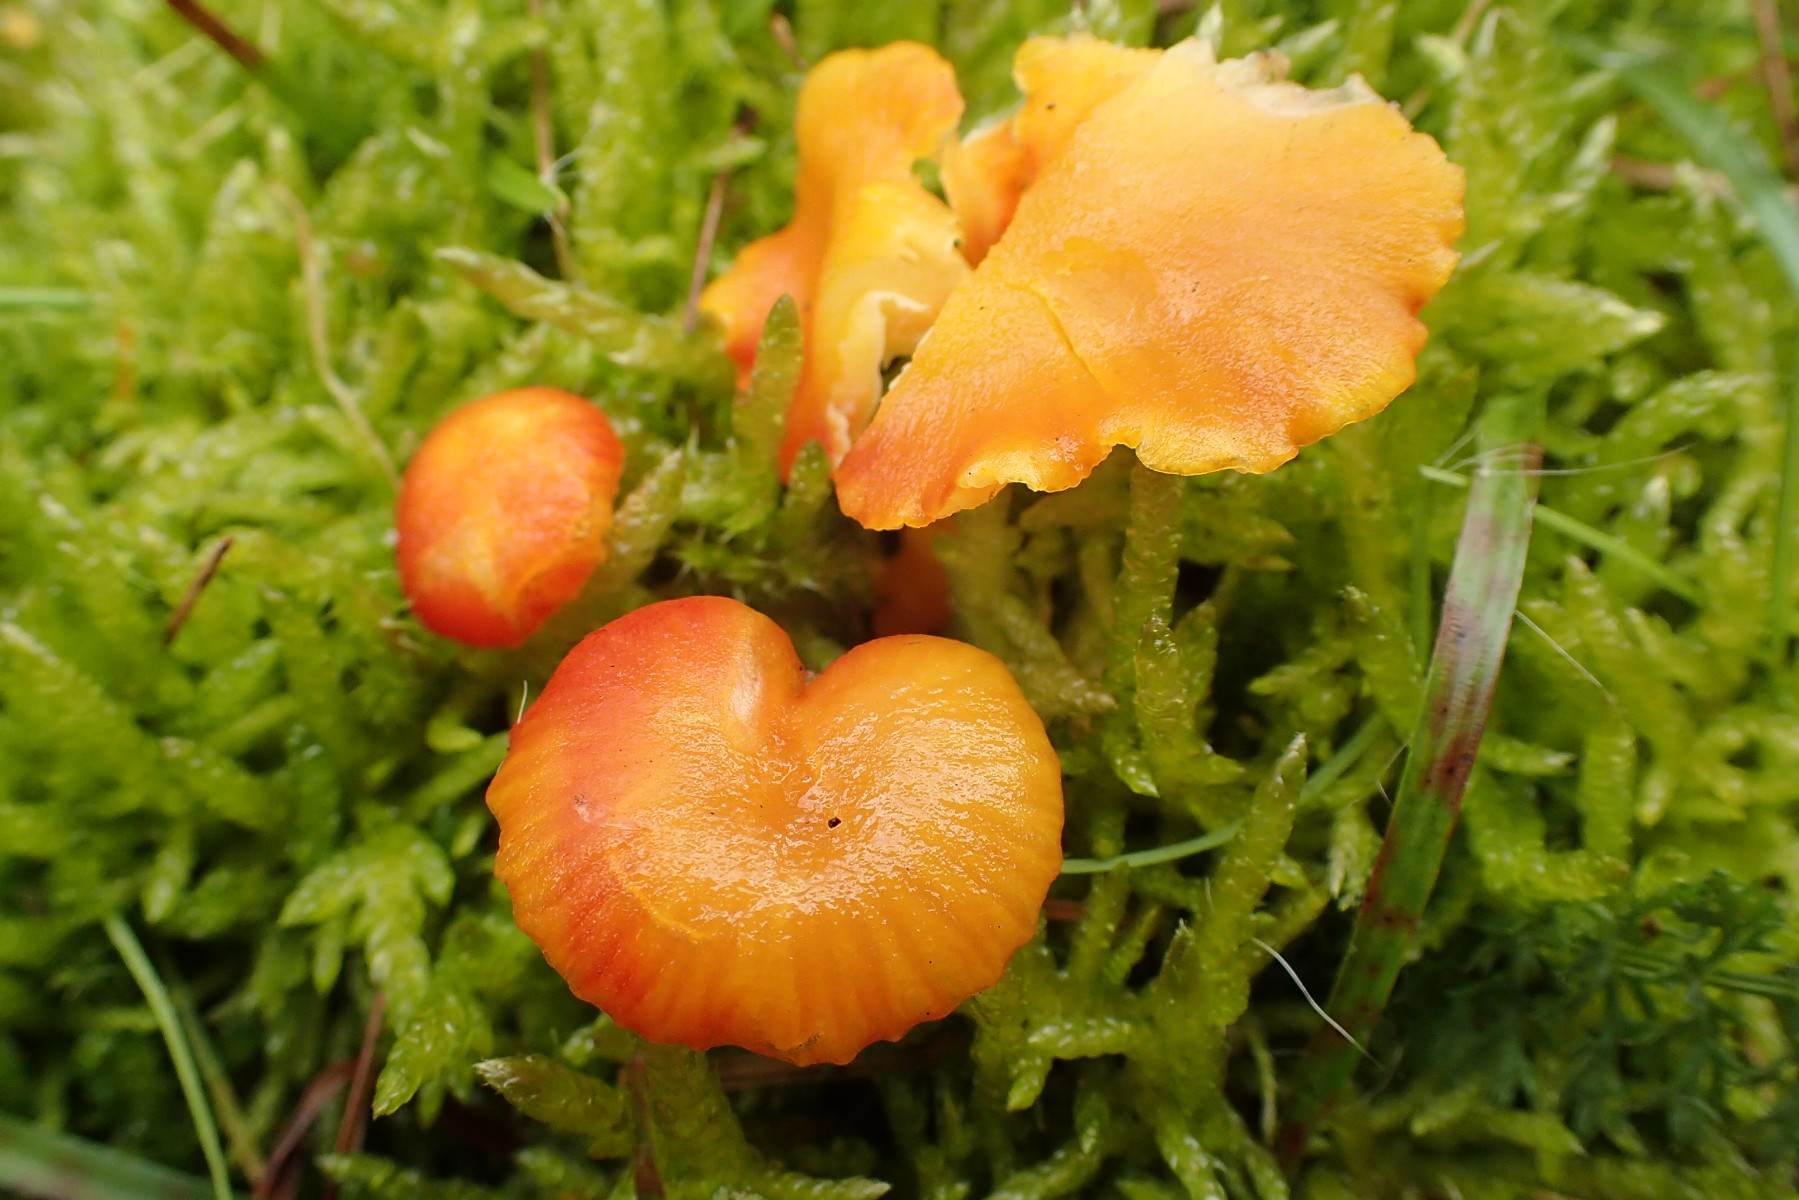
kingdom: Fungi
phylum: Basidiomycota
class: Agaricomycetes
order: Agaricales
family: Hygrophoraceae
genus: Hygrocybe
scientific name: Hygrocybe insipida
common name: liden vokshat
